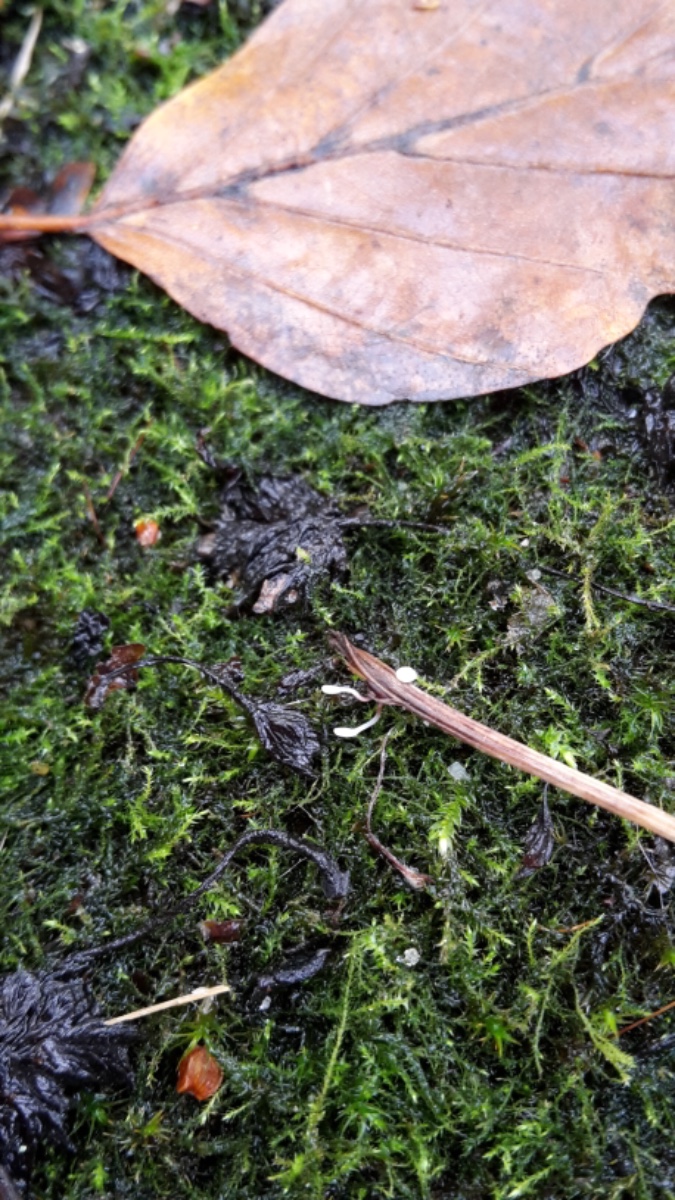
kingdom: Fungi
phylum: Basidiomycota
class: Agaricomycetes
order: Agaricales
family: Typhulaceae
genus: Typhula
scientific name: Typhula
